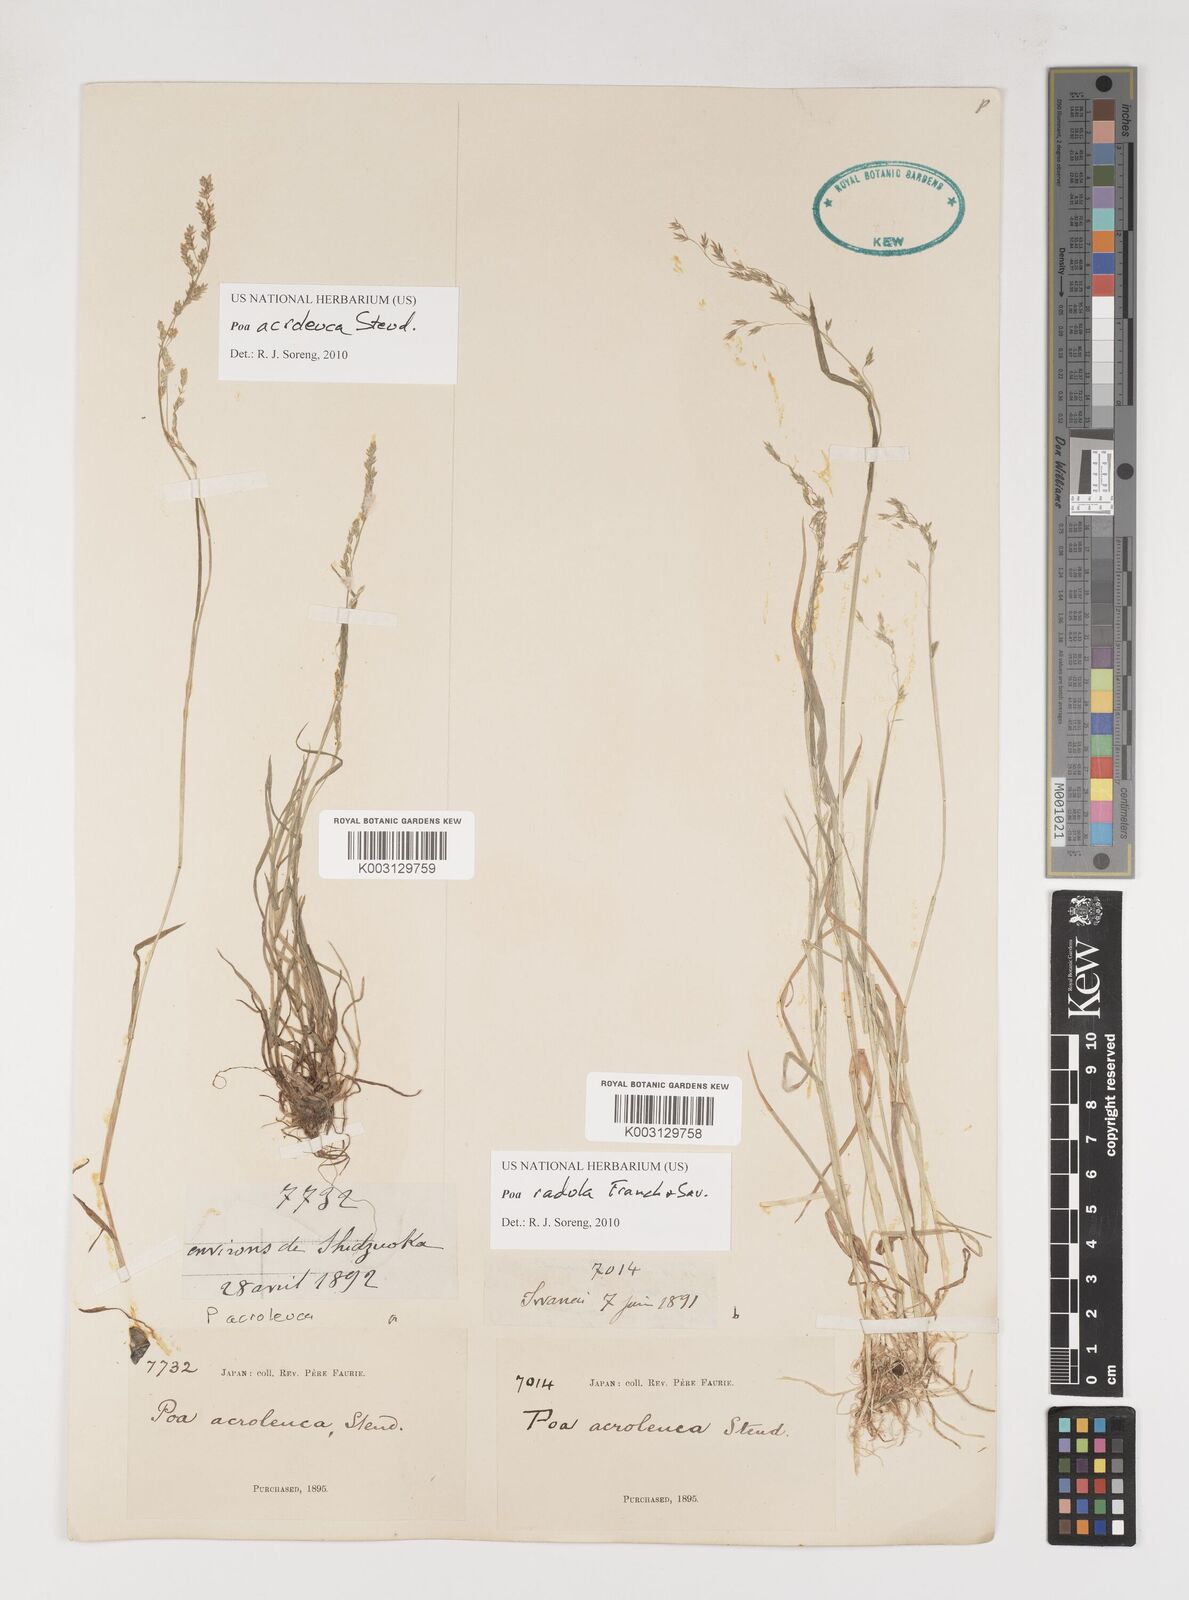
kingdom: Plantae
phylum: Tracheophyta
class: Liliopsida
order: Poales
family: Poaceae
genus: Poa
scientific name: Poa acroleuca
